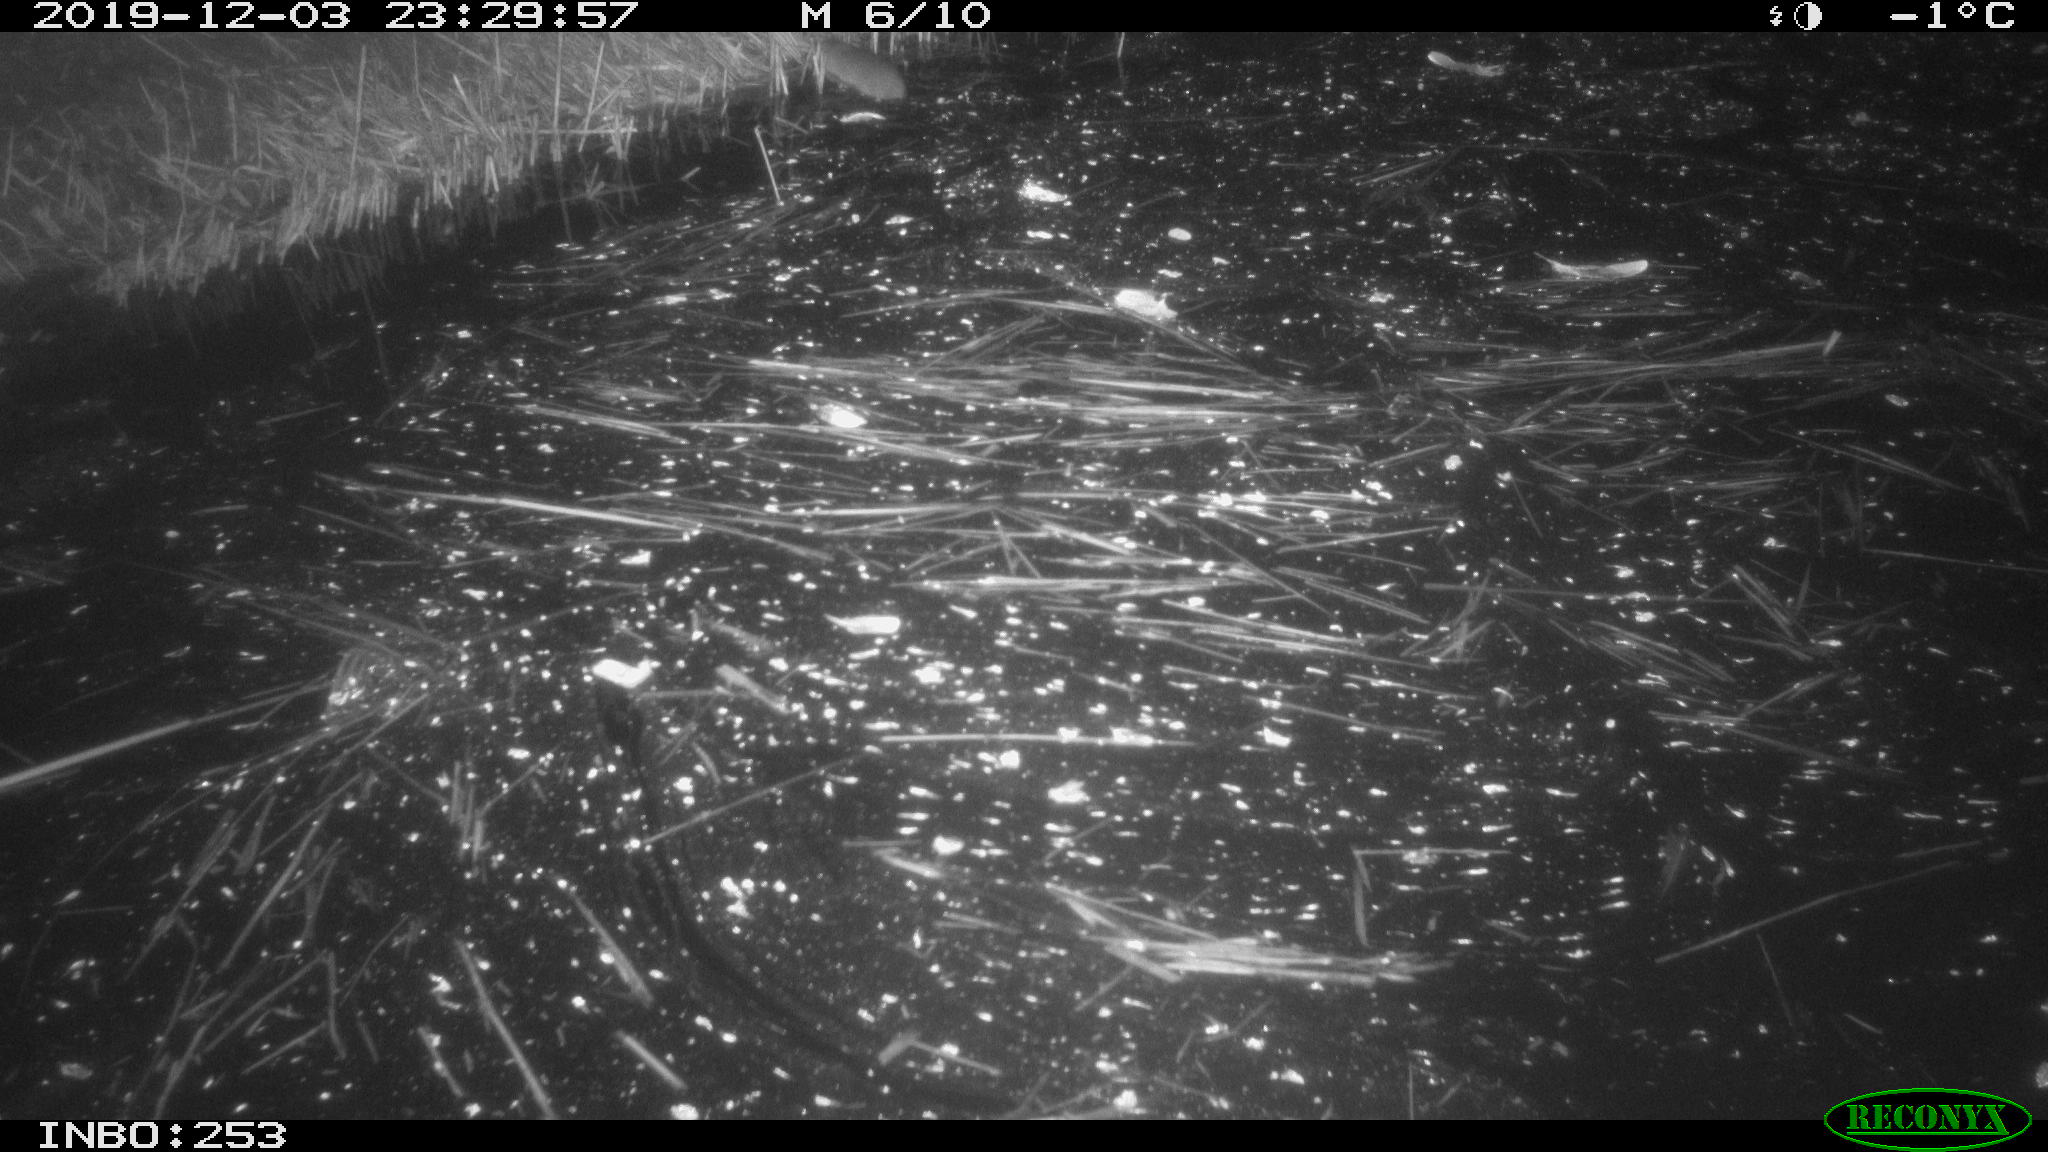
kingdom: Animalia
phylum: Chordata
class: Mammalia
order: Rodentia
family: Muridae
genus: Rattus
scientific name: Rattus norvegicus
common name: Brown rat
